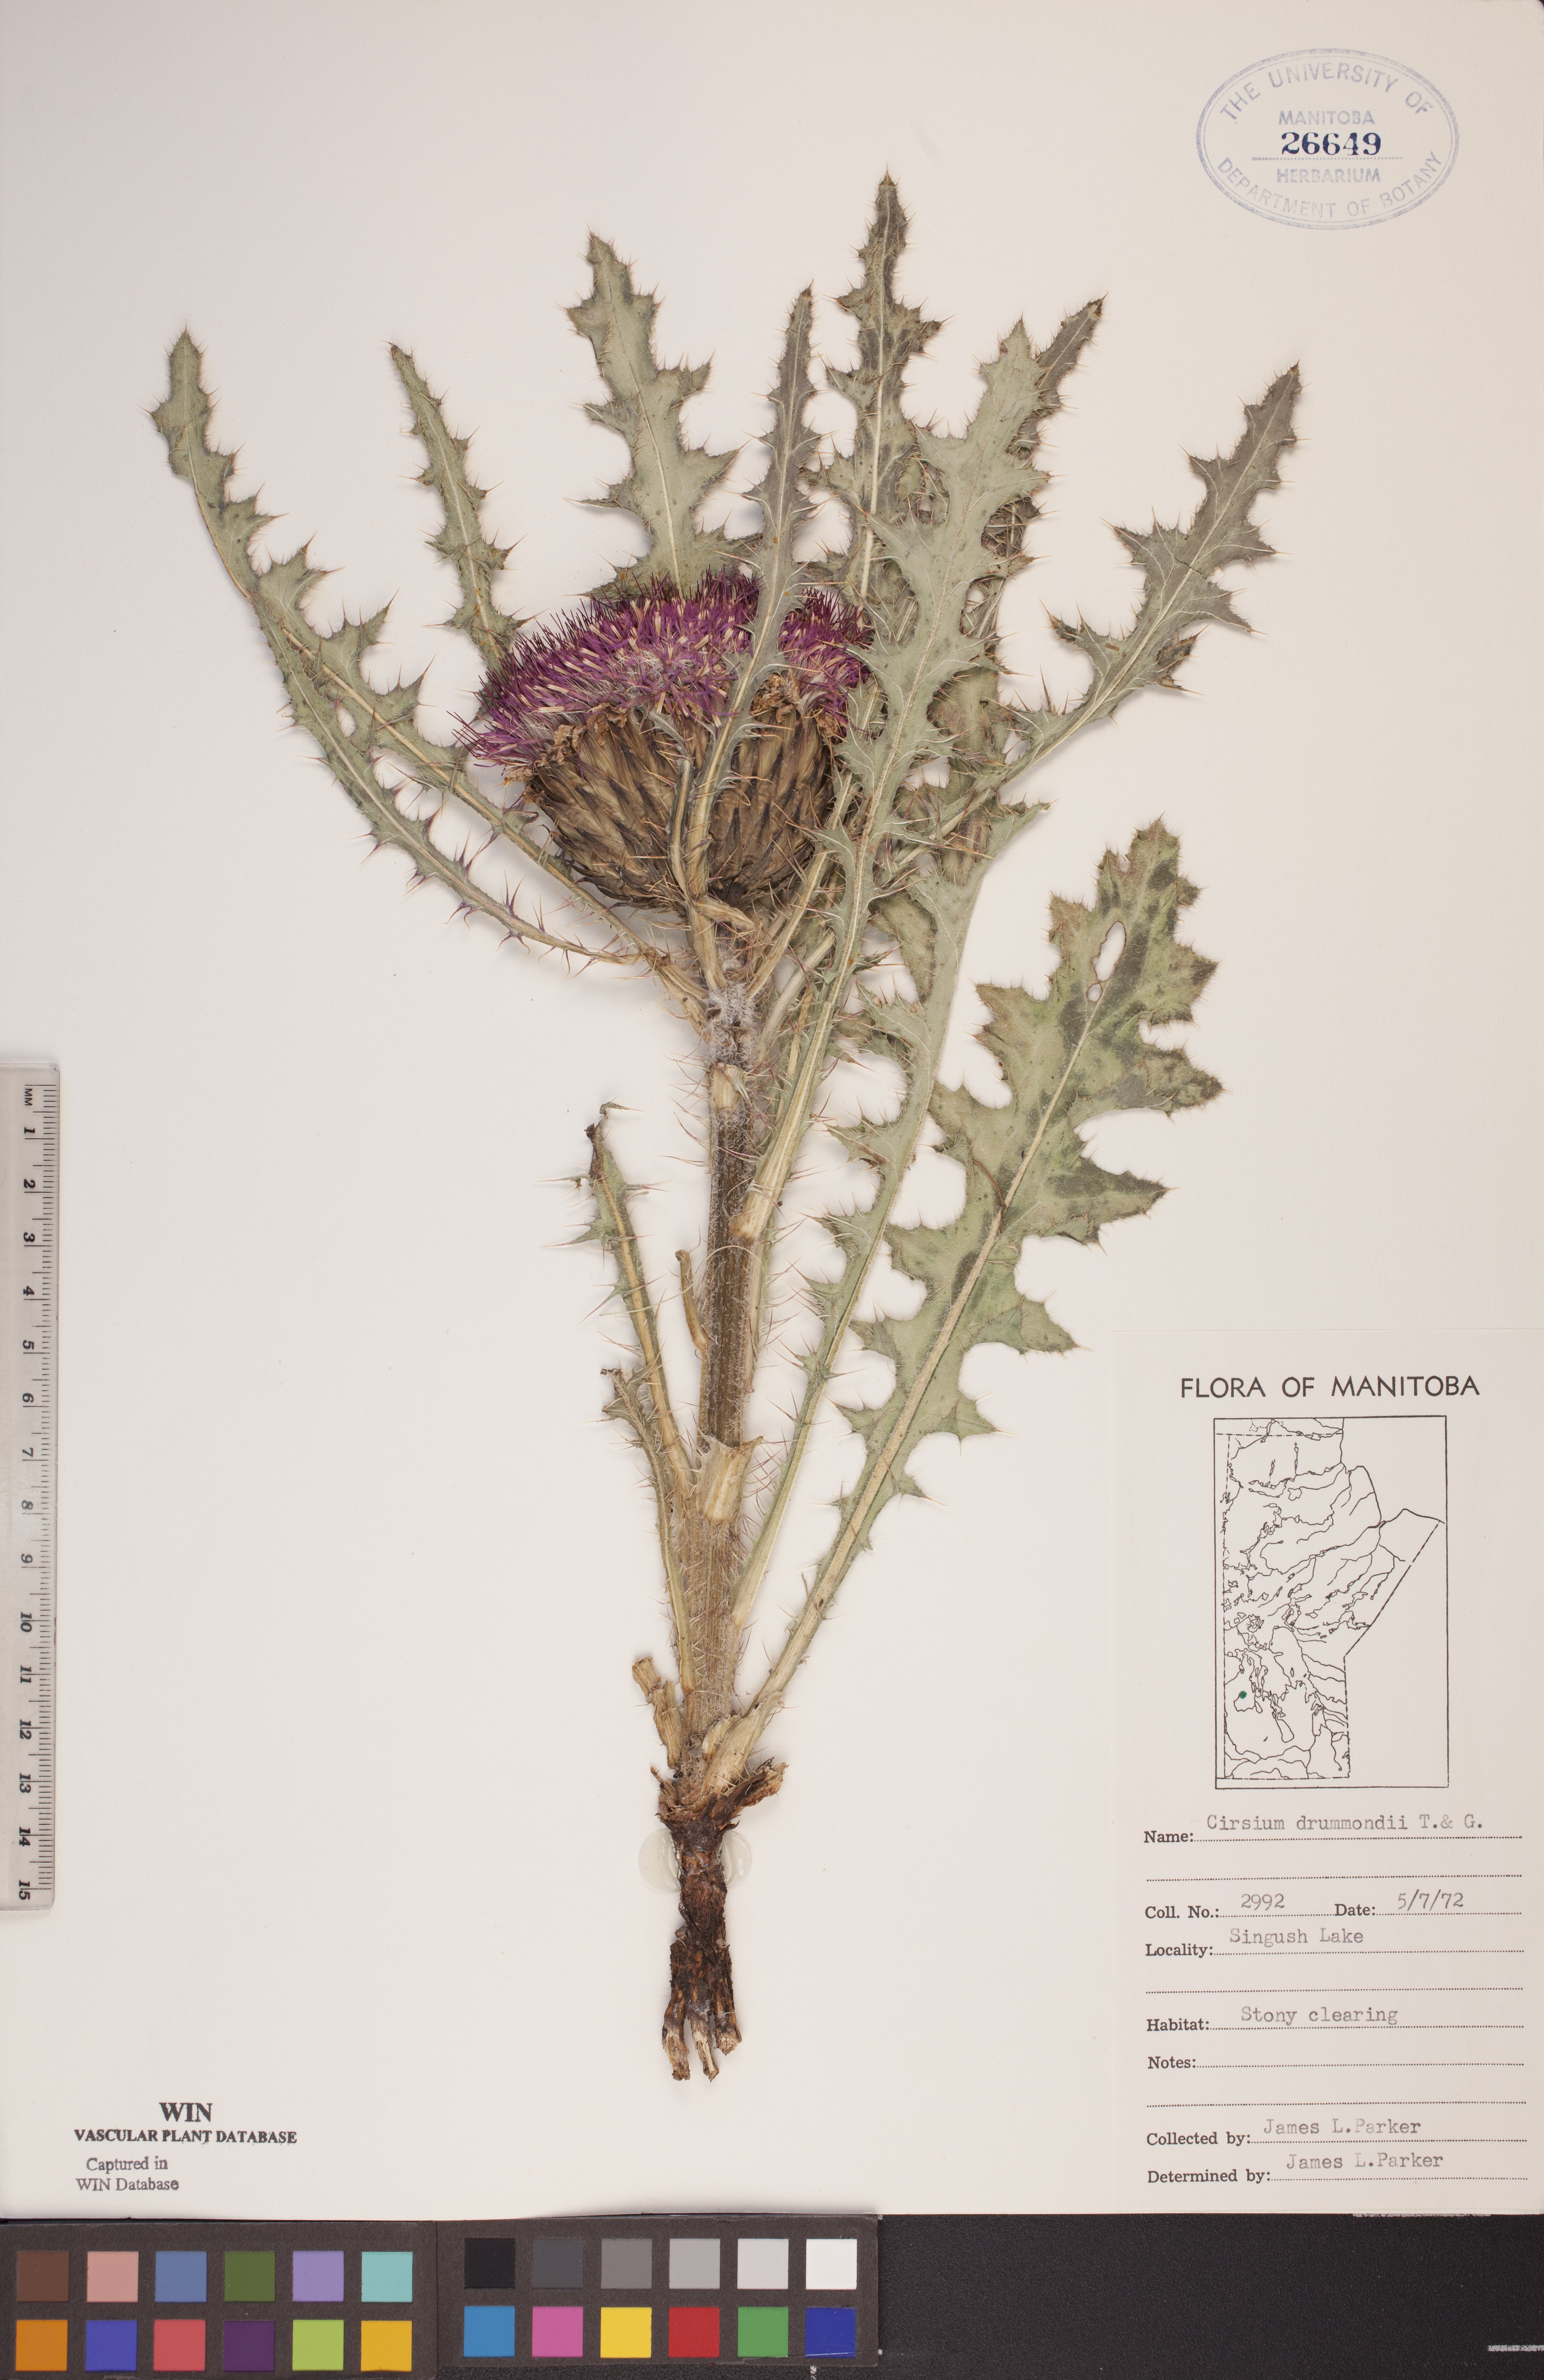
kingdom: Plantae
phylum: Tracheophyta
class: Magnoliopsida
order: Asterales
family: Asteraceae
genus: Cirsium
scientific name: Cirsium drummondii
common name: Drummond's thistle
